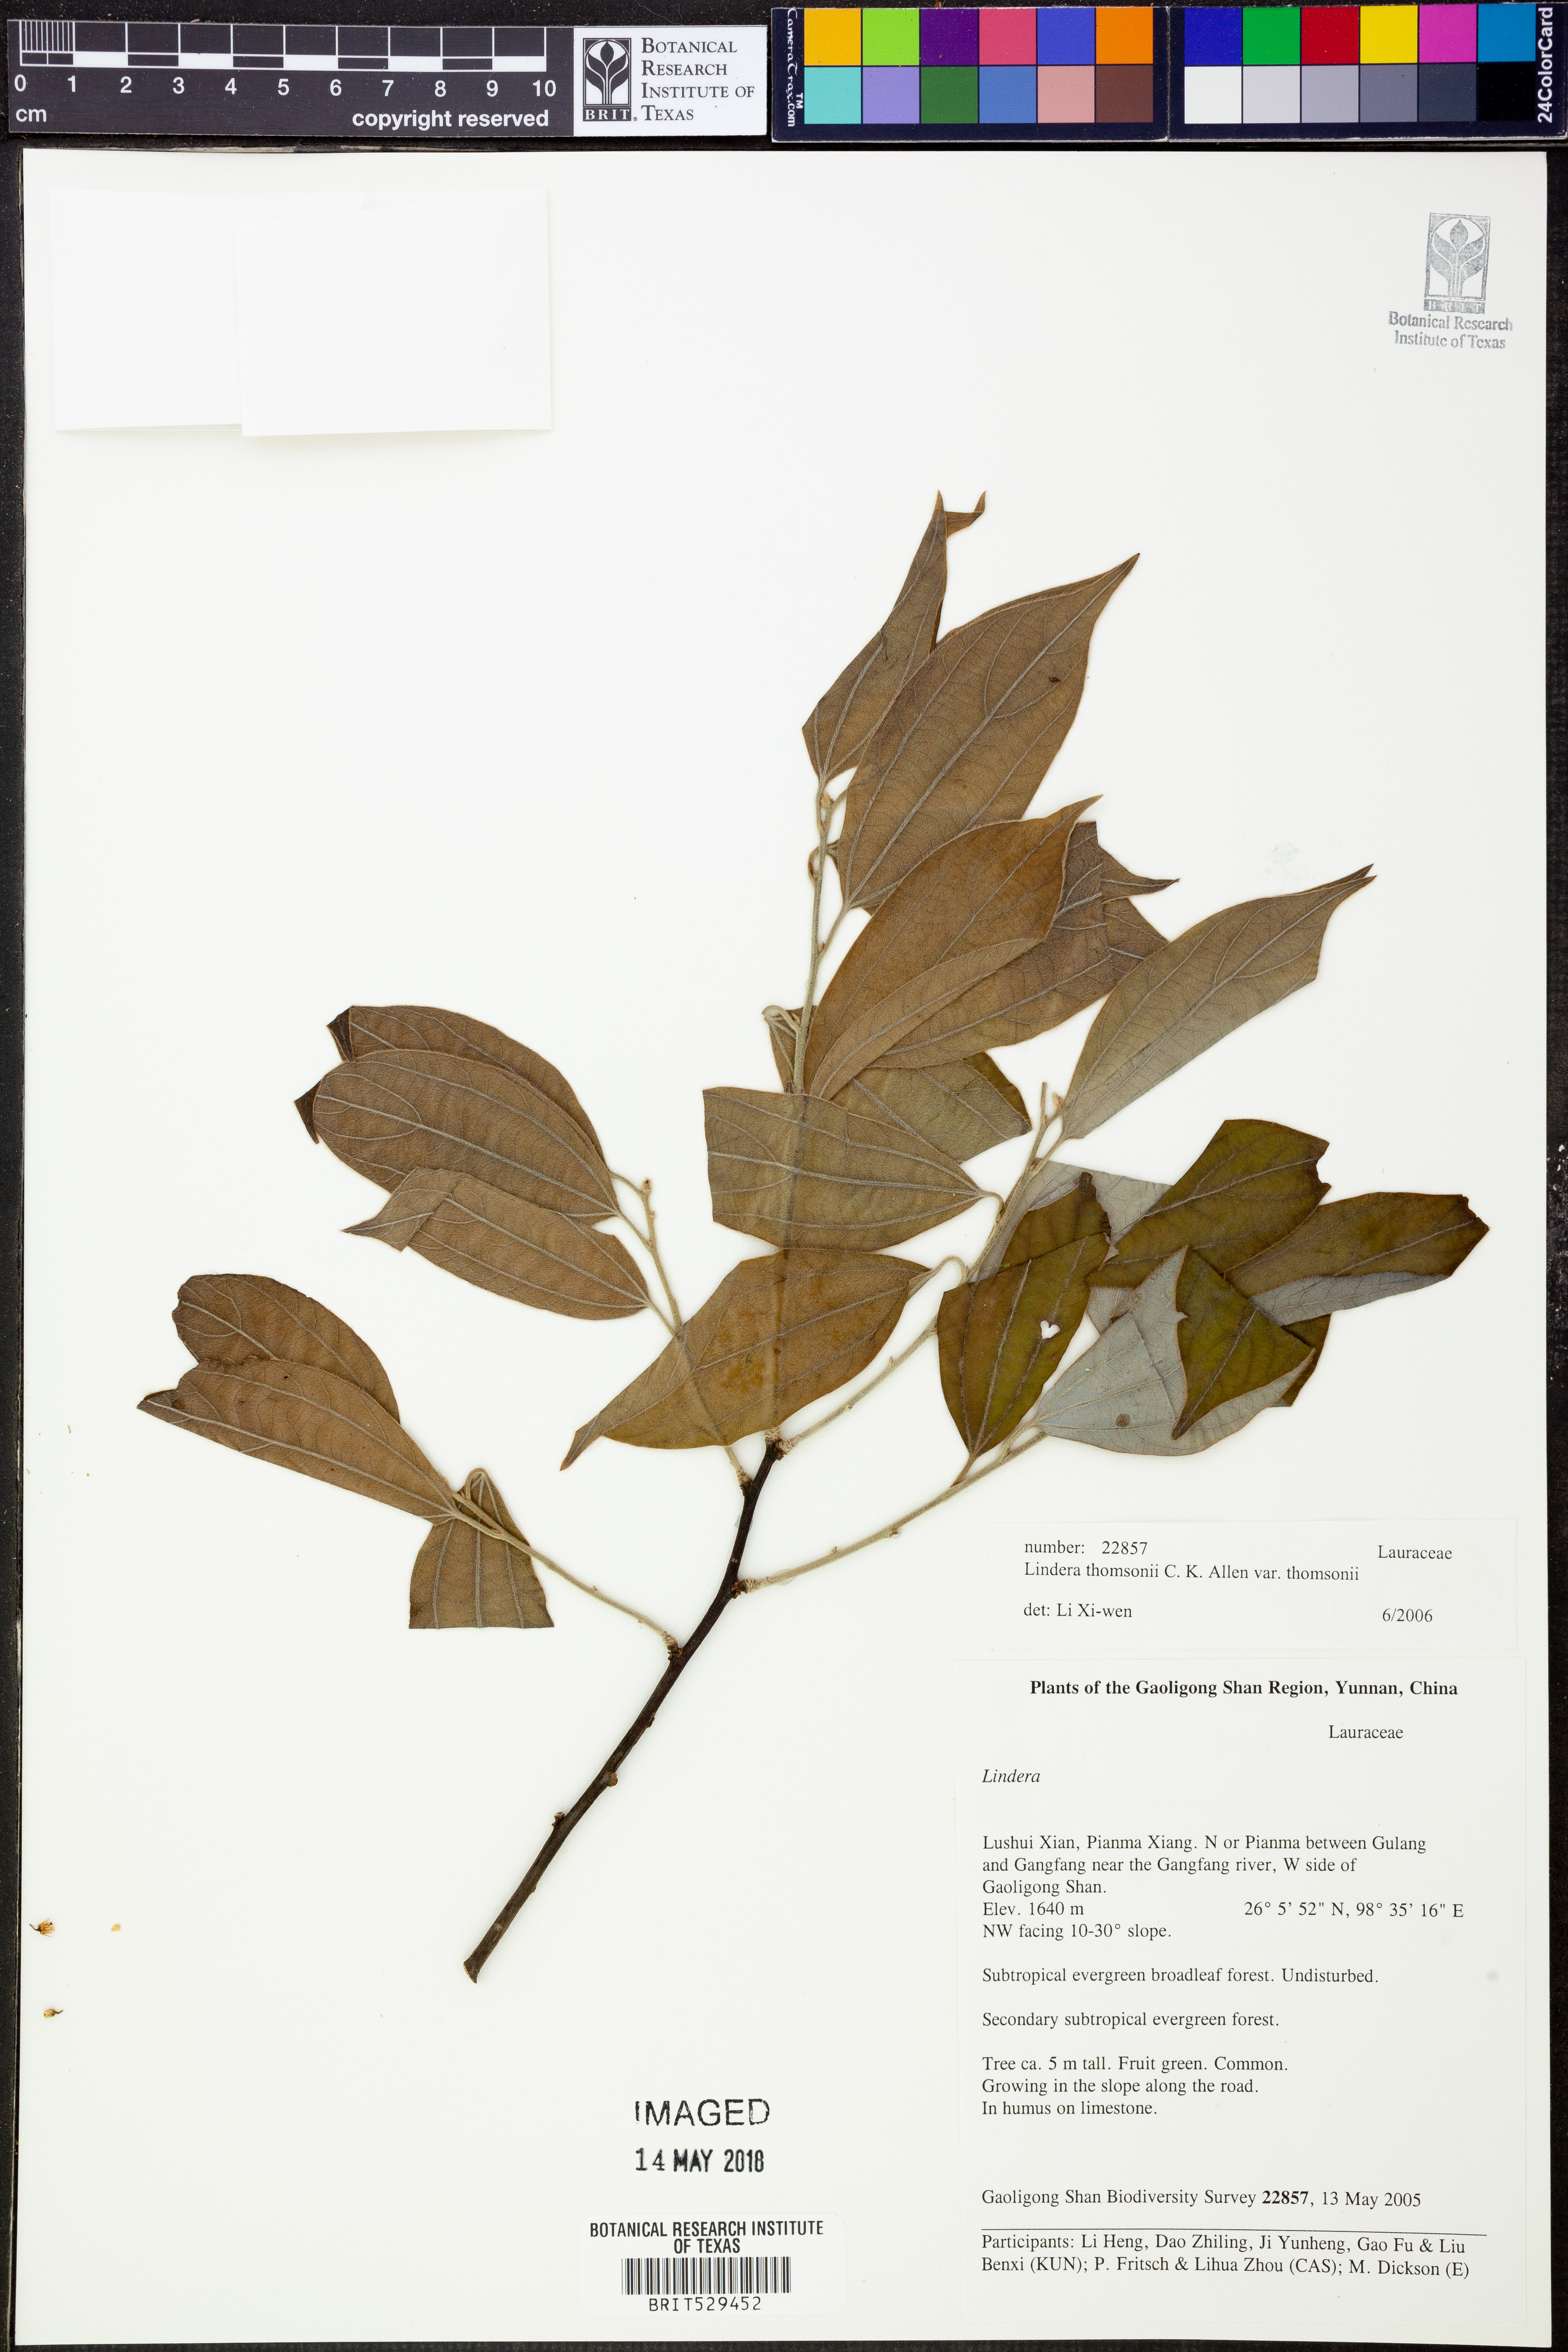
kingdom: Plantae
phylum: Tracheophyta
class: Magnoliopsida
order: Laurales
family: Lauraceae
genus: Lindera
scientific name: Lindera thomsonii
